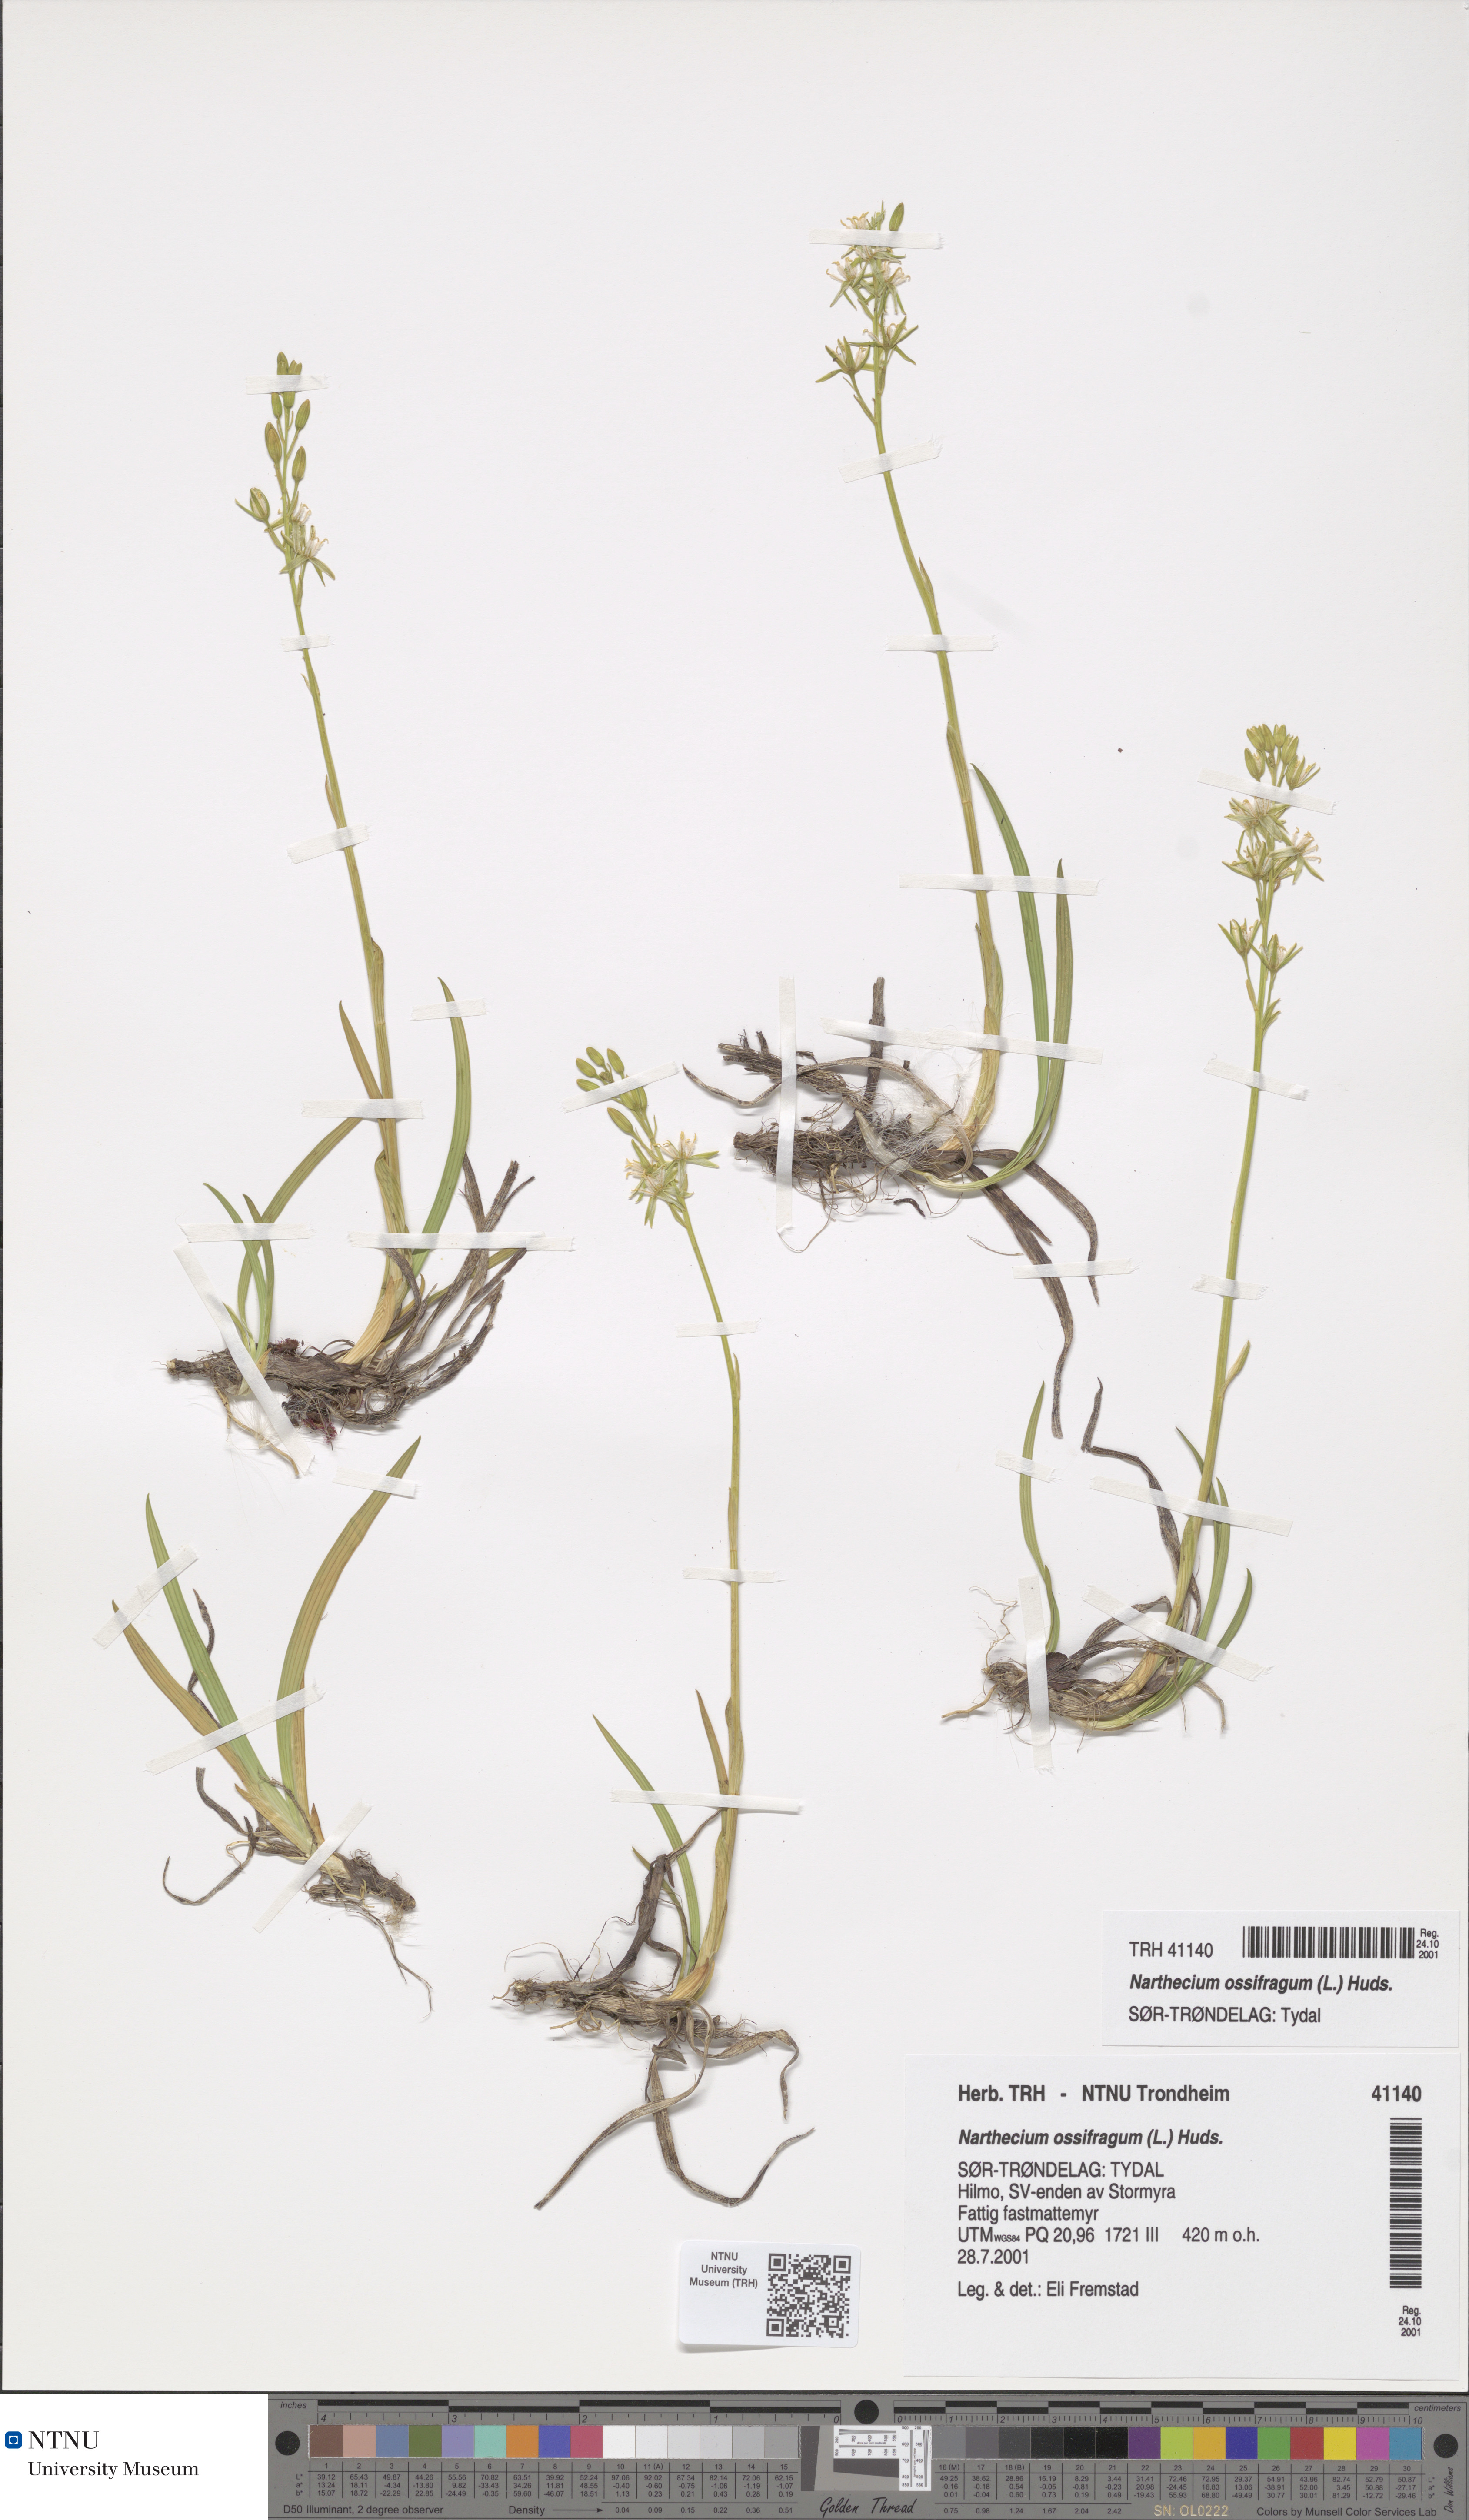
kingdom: Plantae
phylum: Tracheophyta
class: Liliopsida
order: Dioscoreales
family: Nartheciaceae
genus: Narthecium
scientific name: Narthecium ossifragum
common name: Bog asphodel
